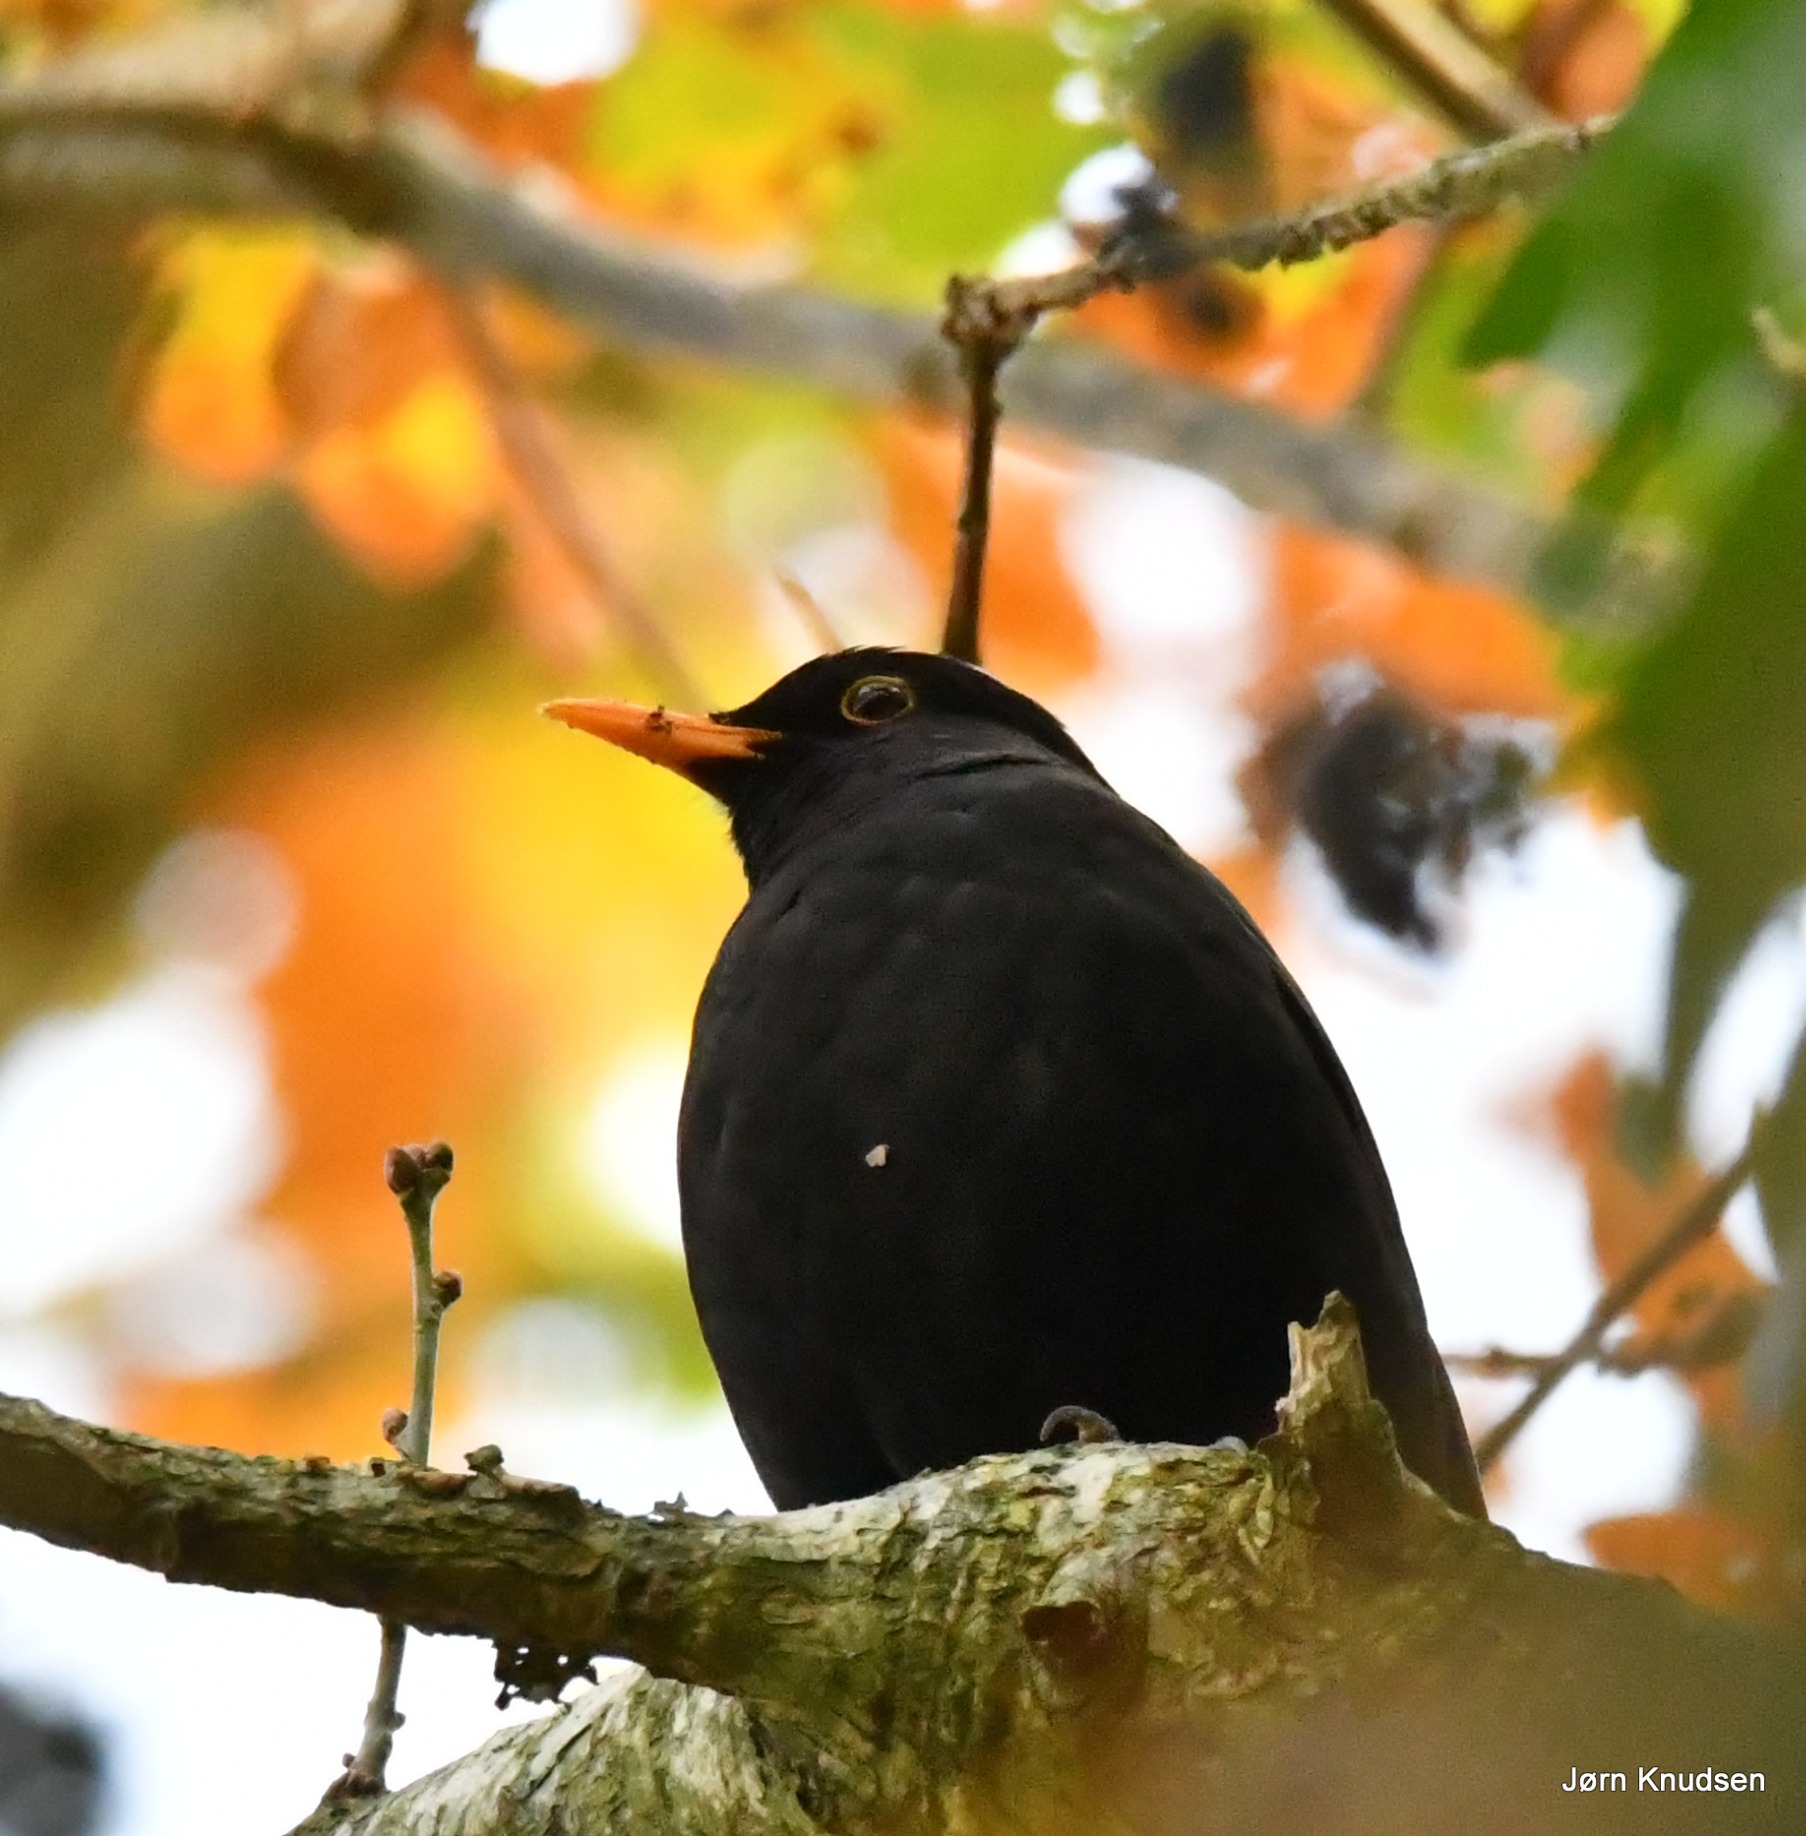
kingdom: Animalia
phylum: Chordata
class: Aves
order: Passeriformes
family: Turdidae
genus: Turdus
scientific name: Turdus merula
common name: Solsort
